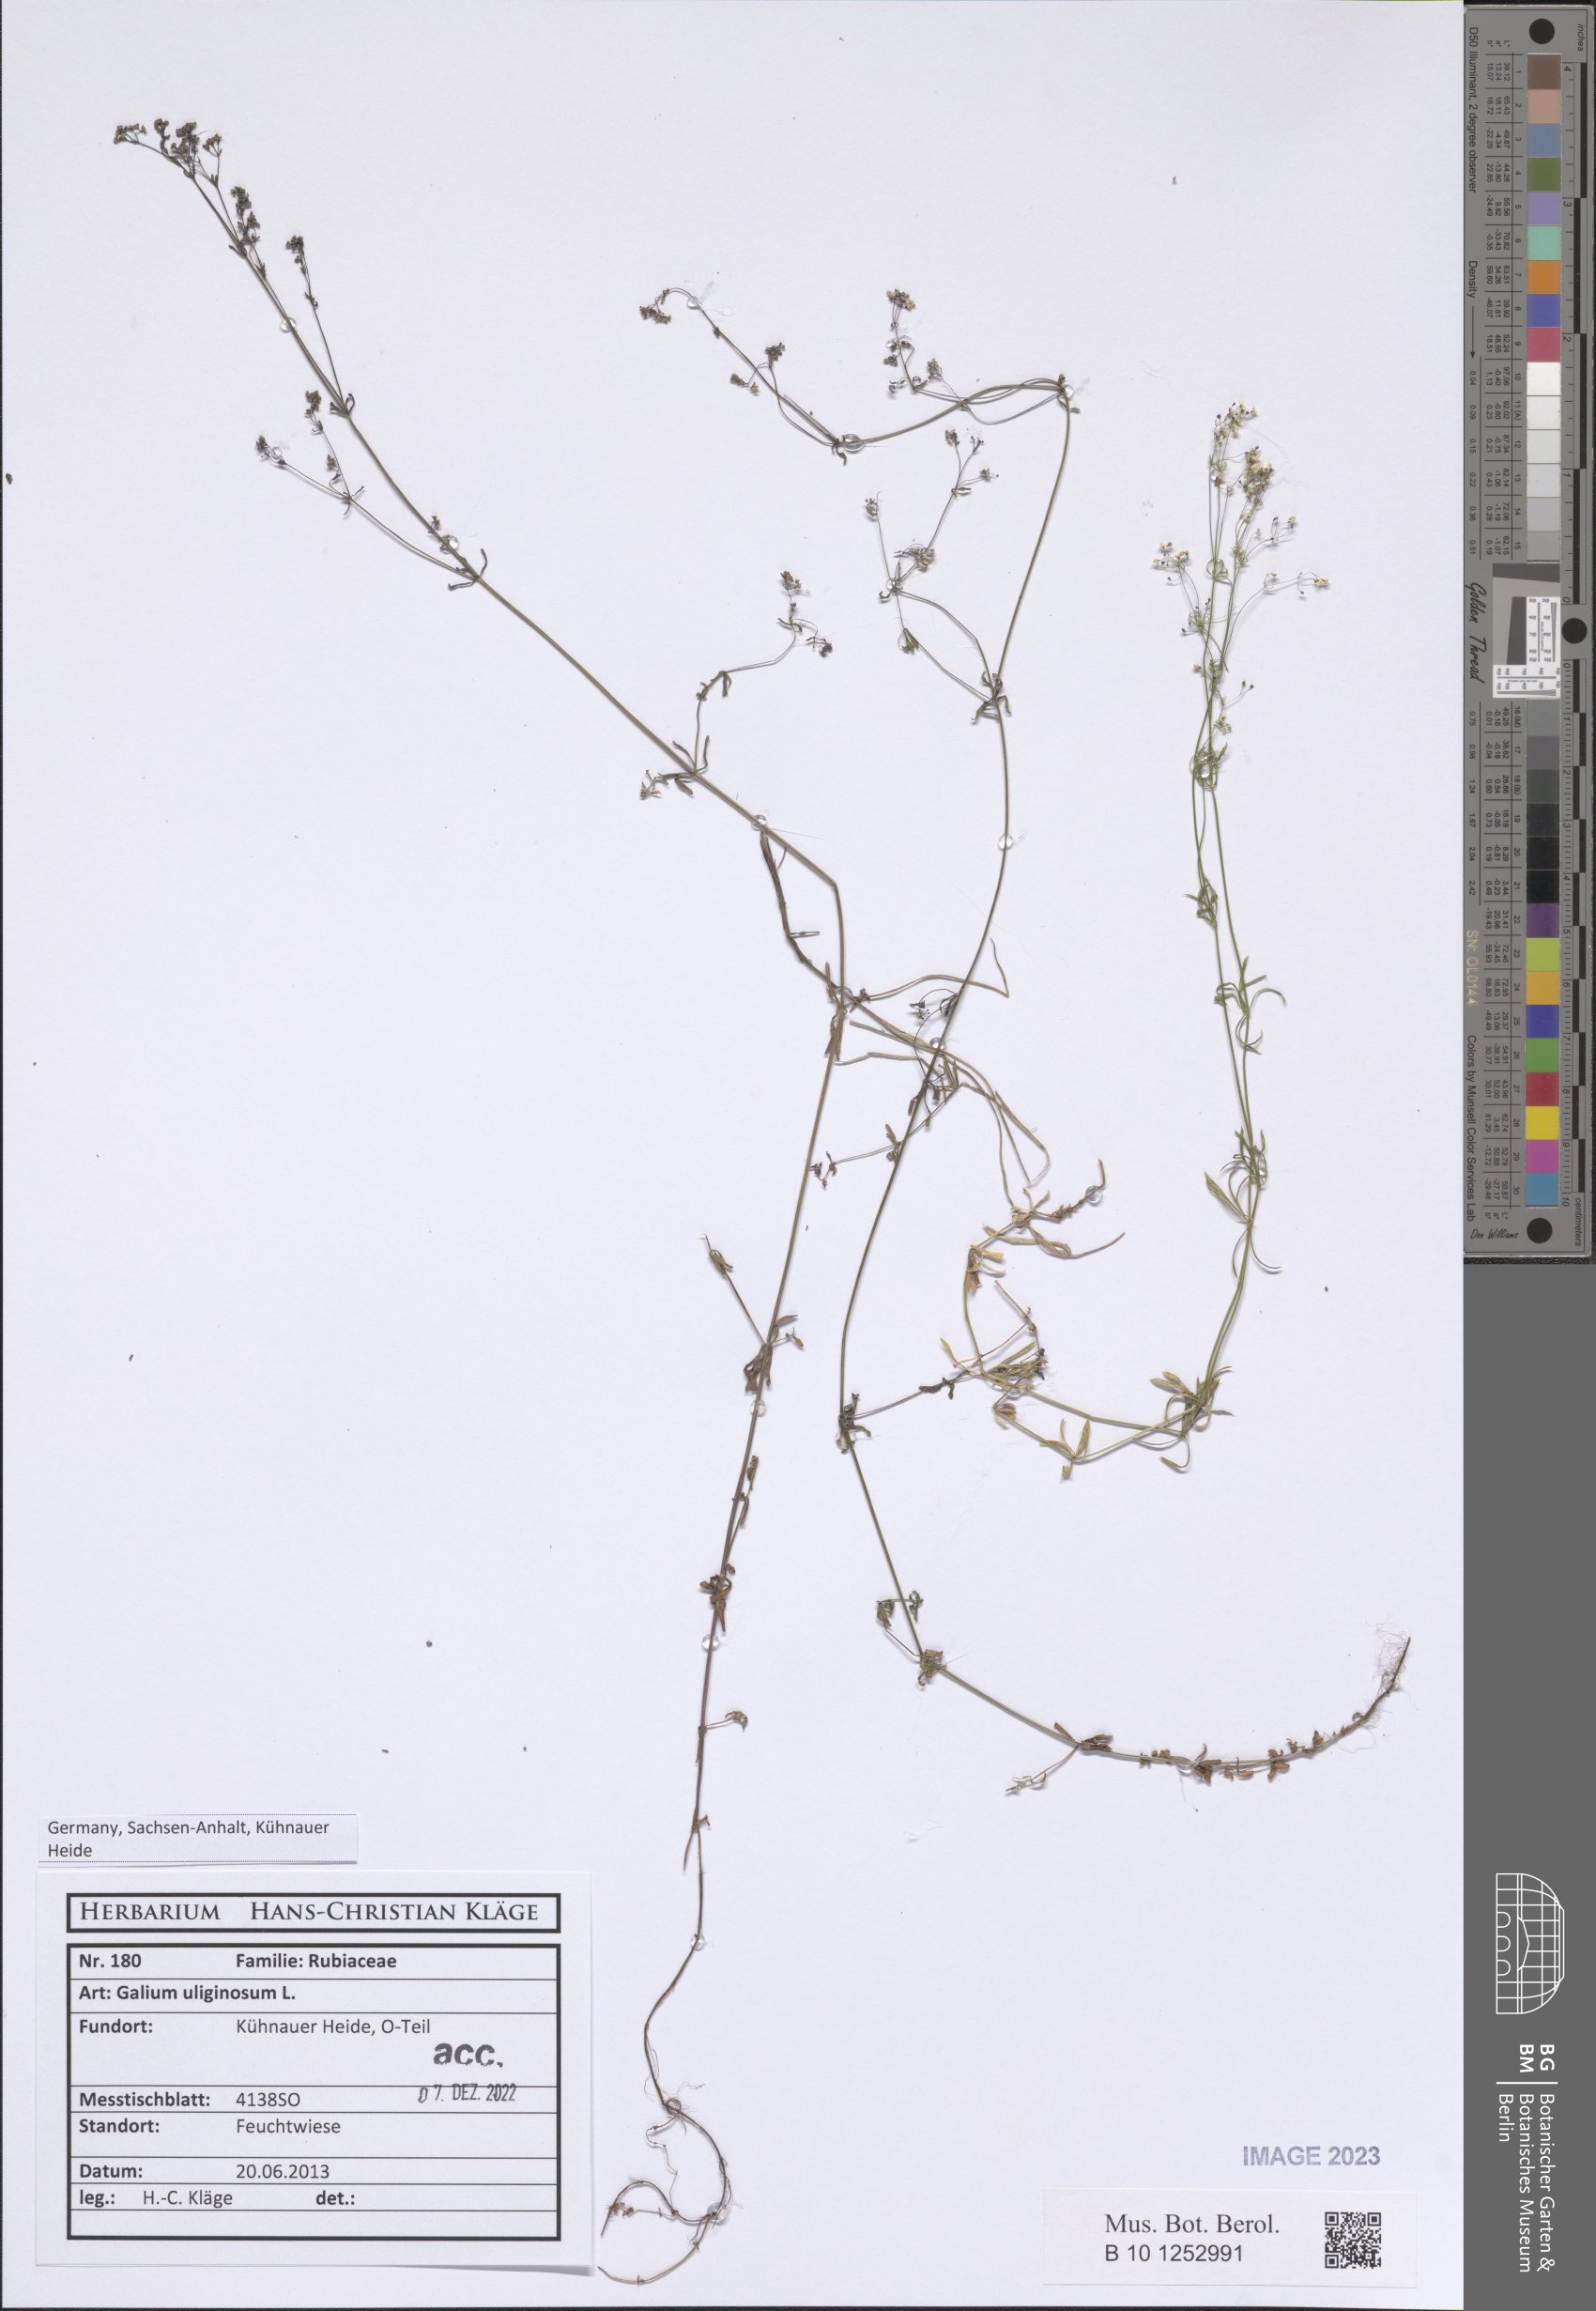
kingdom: Plantae
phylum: Tracheophyta
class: Magnoliopsida
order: Gentianales
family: Rubiaceae
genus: Galium
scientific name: Galium uliginosum
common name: Fen bedstraw
